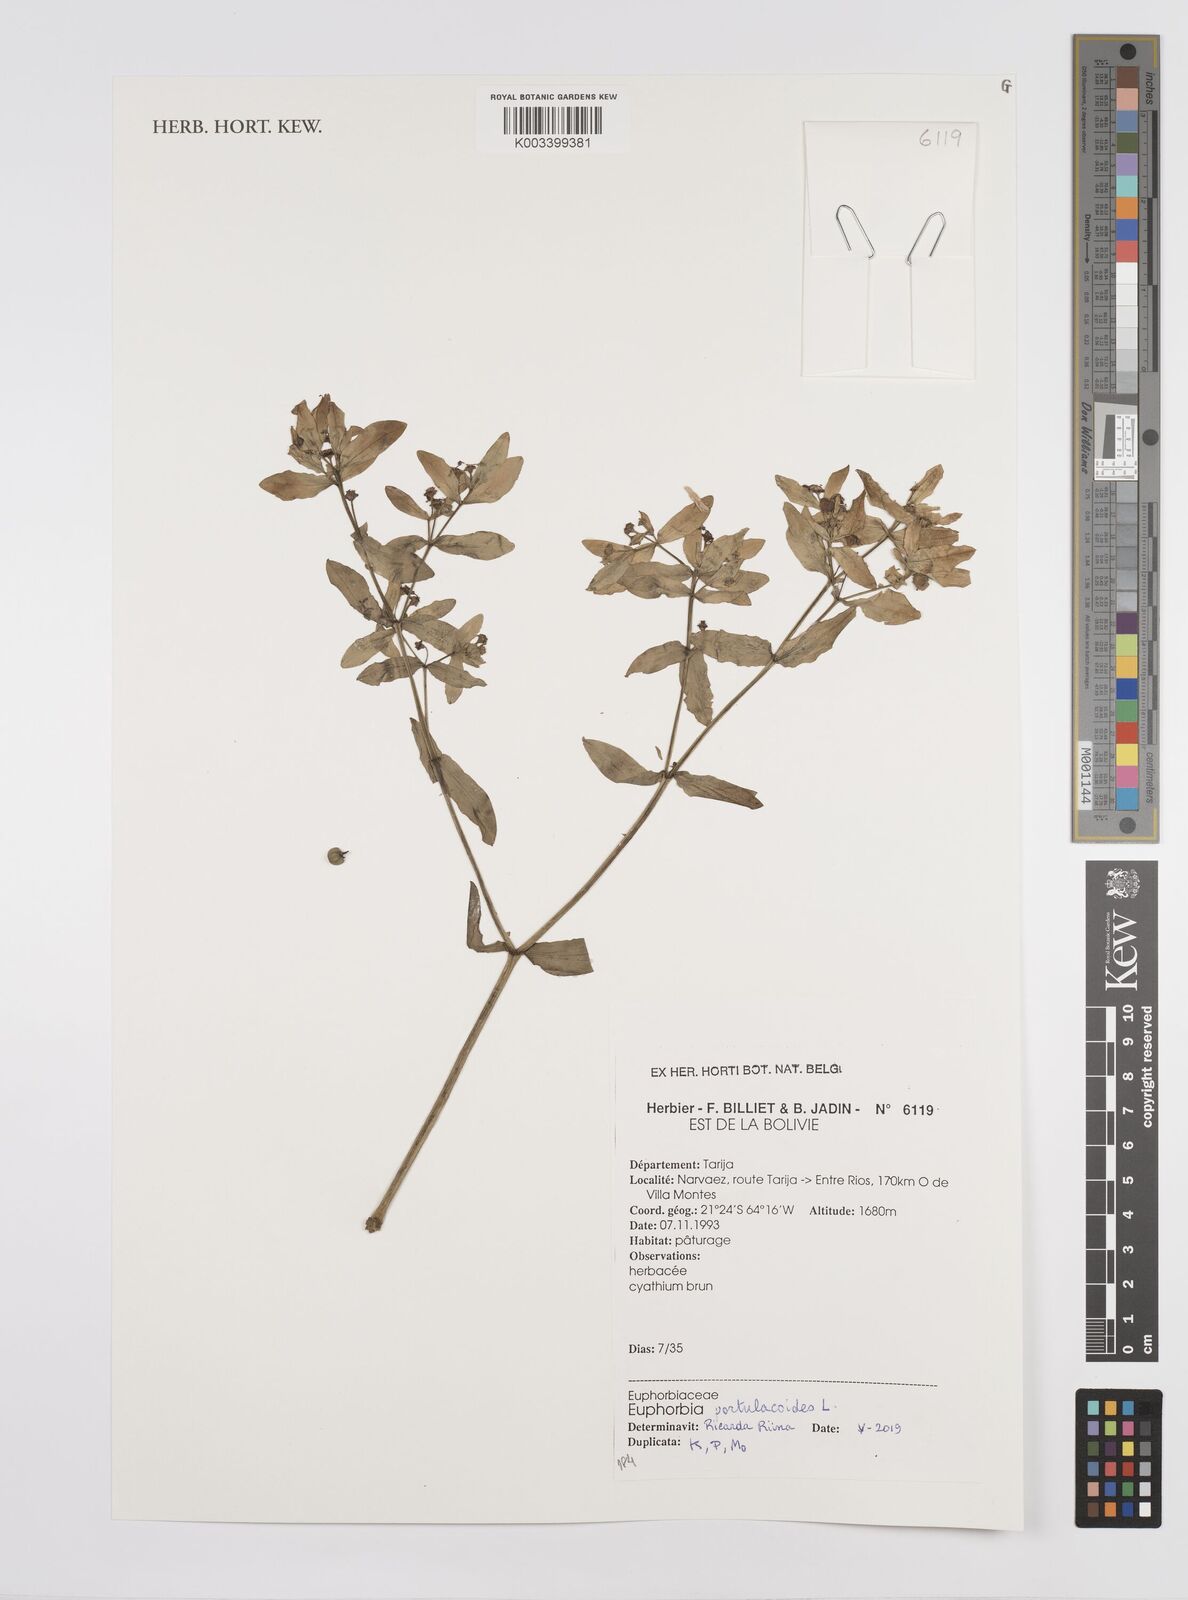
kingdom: Plantae
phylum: Tracheophyta
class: Magnoliopsida
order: Malpighiales
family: Euphorbiaceae
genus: Euphorbia
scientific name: Euphorbia portulacoides
